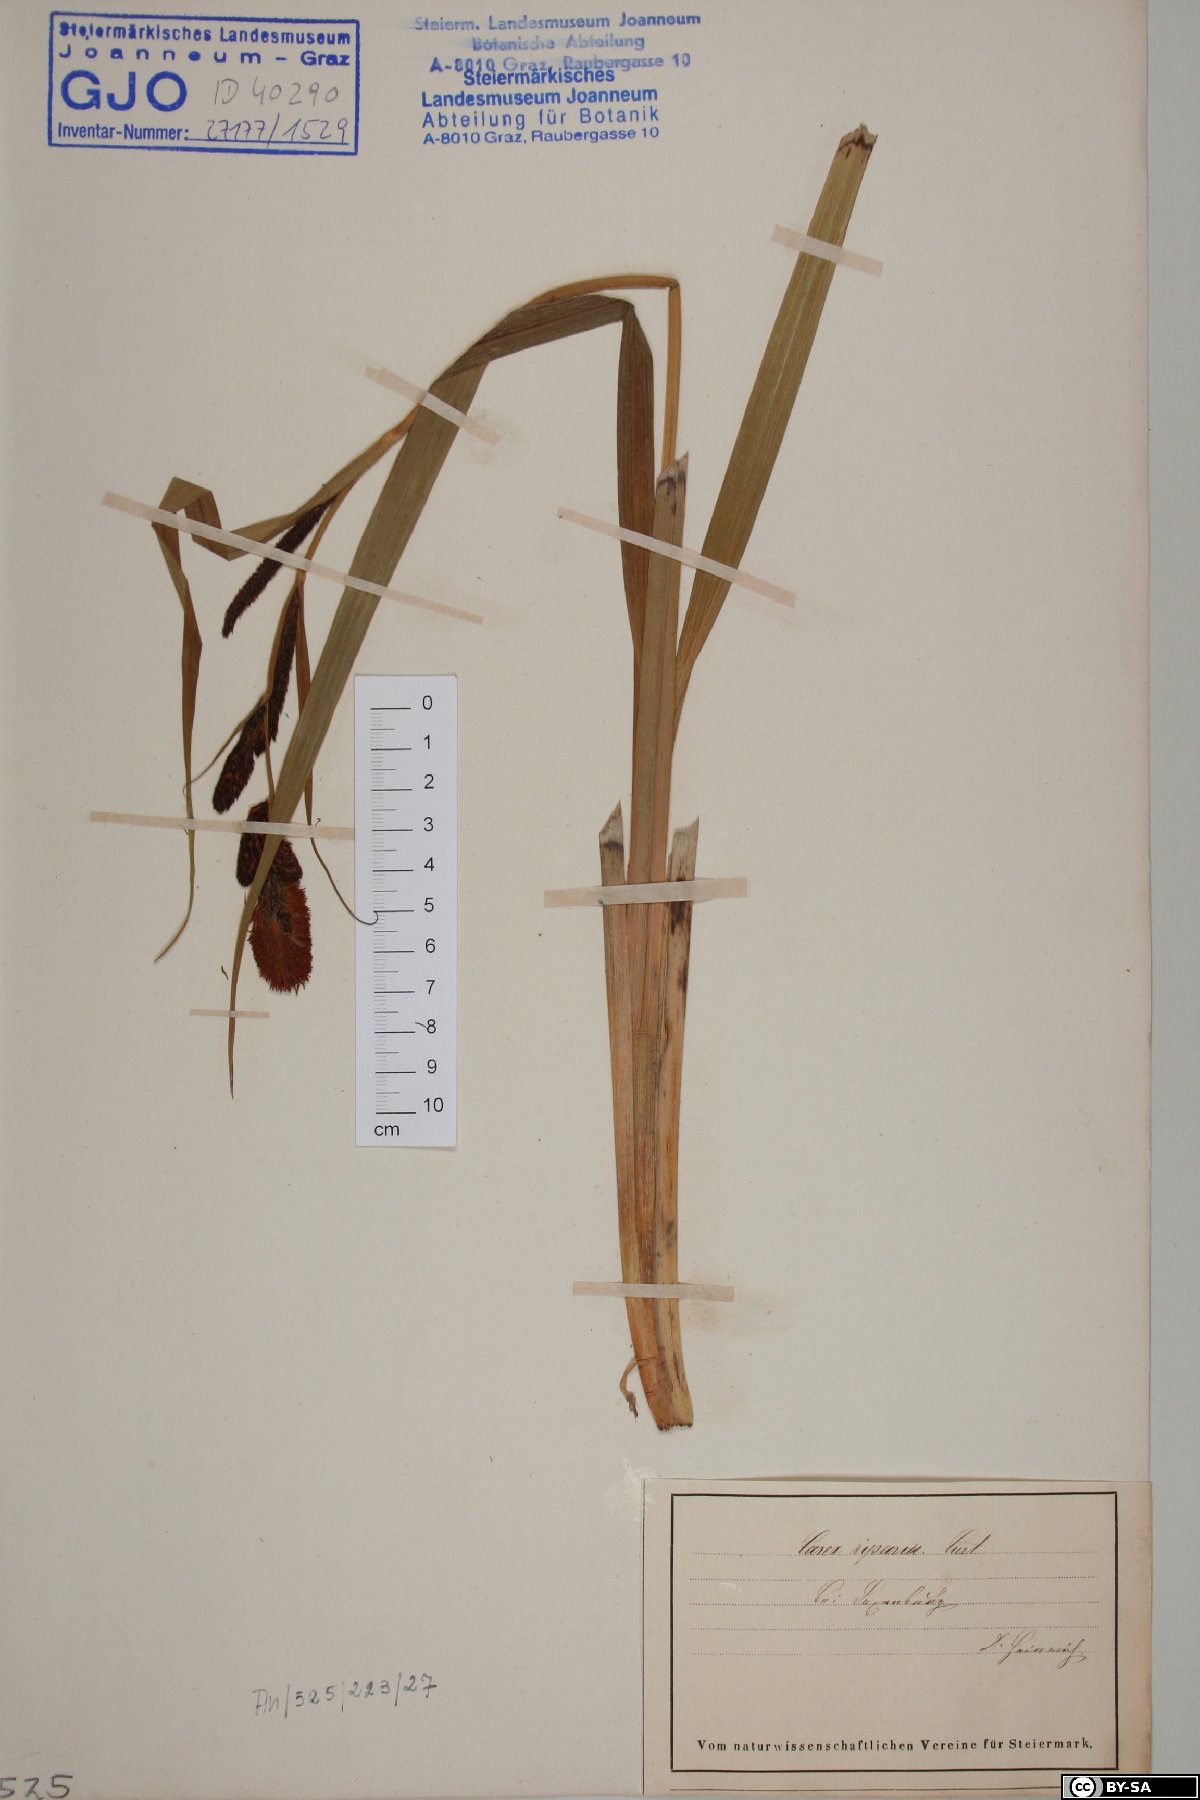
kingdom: Plantae
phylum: Tracheophyta
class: Liliopsida
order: Poales
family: Cyperaceae
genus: Carex
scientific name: Carex riparia
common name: Greater pond-sedge
